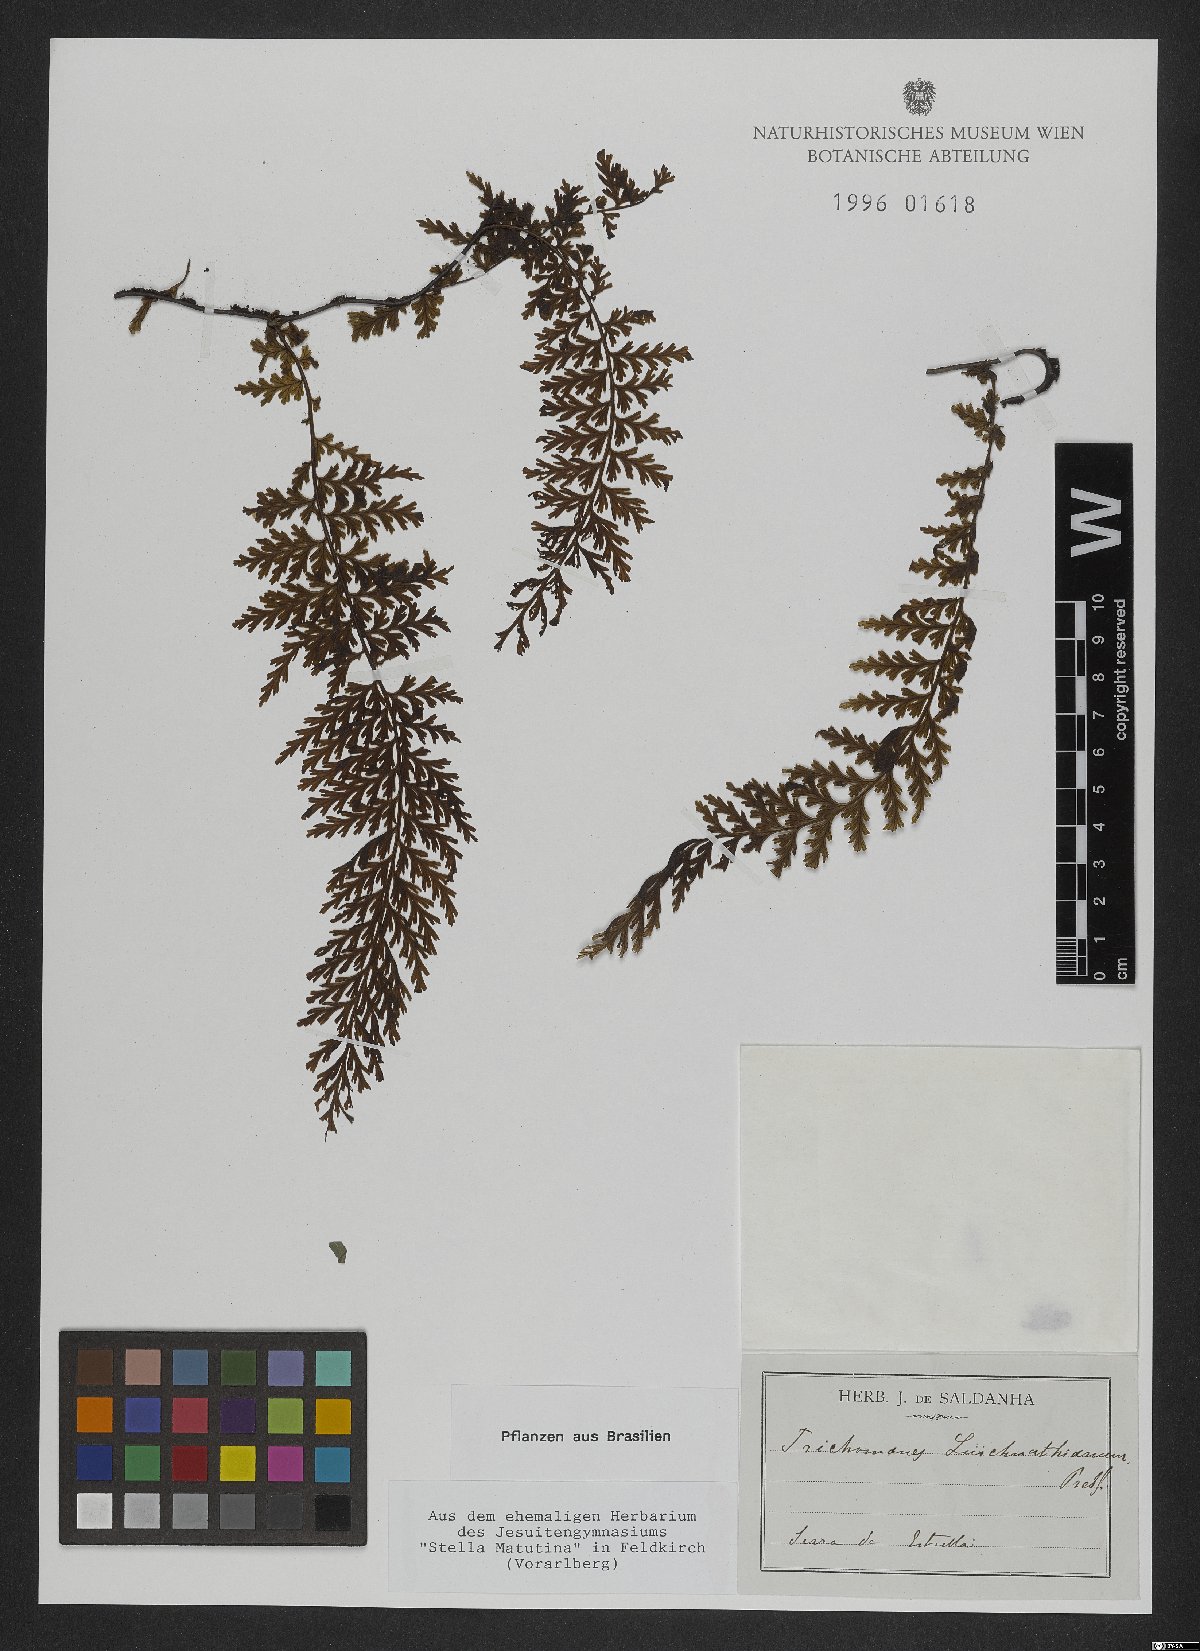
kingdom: Plantae
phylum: Tracheophyta
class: Polypodiopsida
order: Hymenophyllales
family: Hymenophyllaceae
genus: Trichomanes
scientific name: Trichomanes
